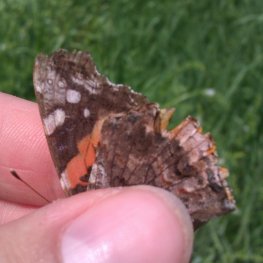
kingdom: Animalia
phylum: Arthropoda
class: Insecta
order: Lepidoptera
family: Nymphalidae
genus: Vanessa
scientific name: Vanessa atalanta
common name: Red Admiral
